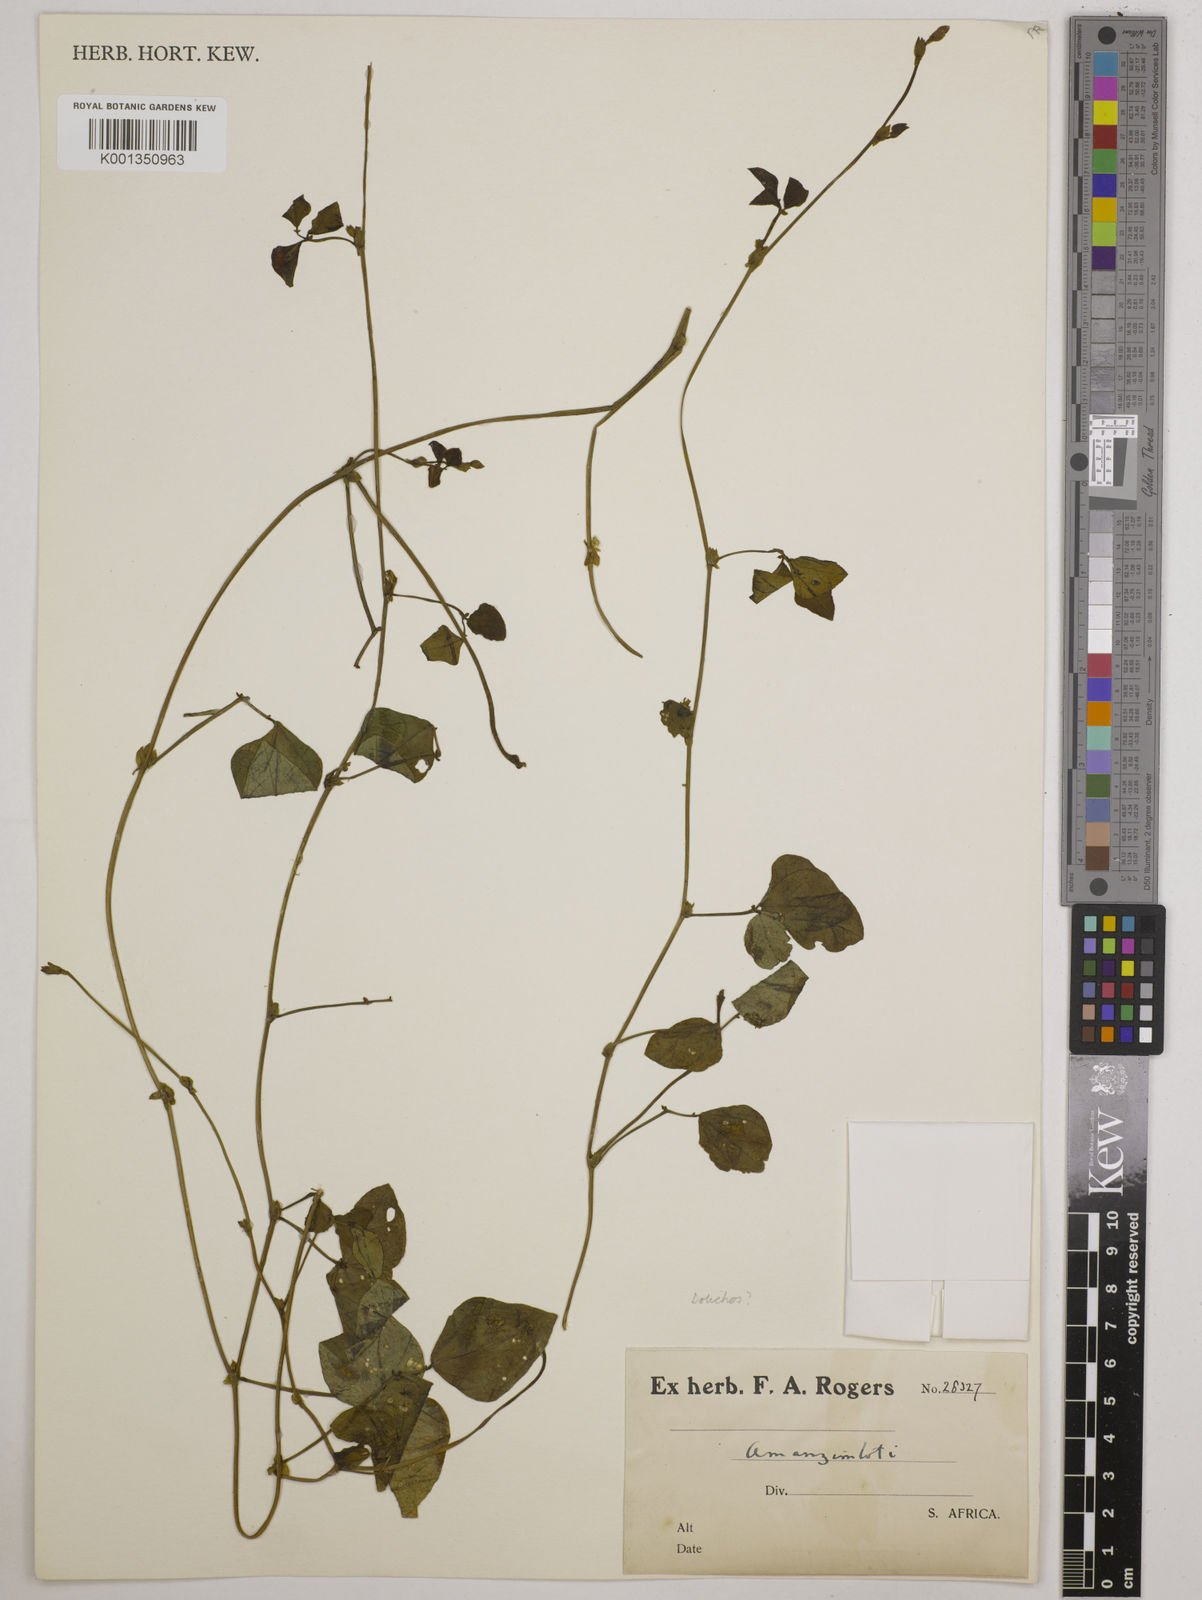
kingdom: Plantae
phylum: Tracheophyta
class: Magnoliopsida
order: Fabales
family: Fabaceae
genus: Dolichos
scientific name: Dolichos
